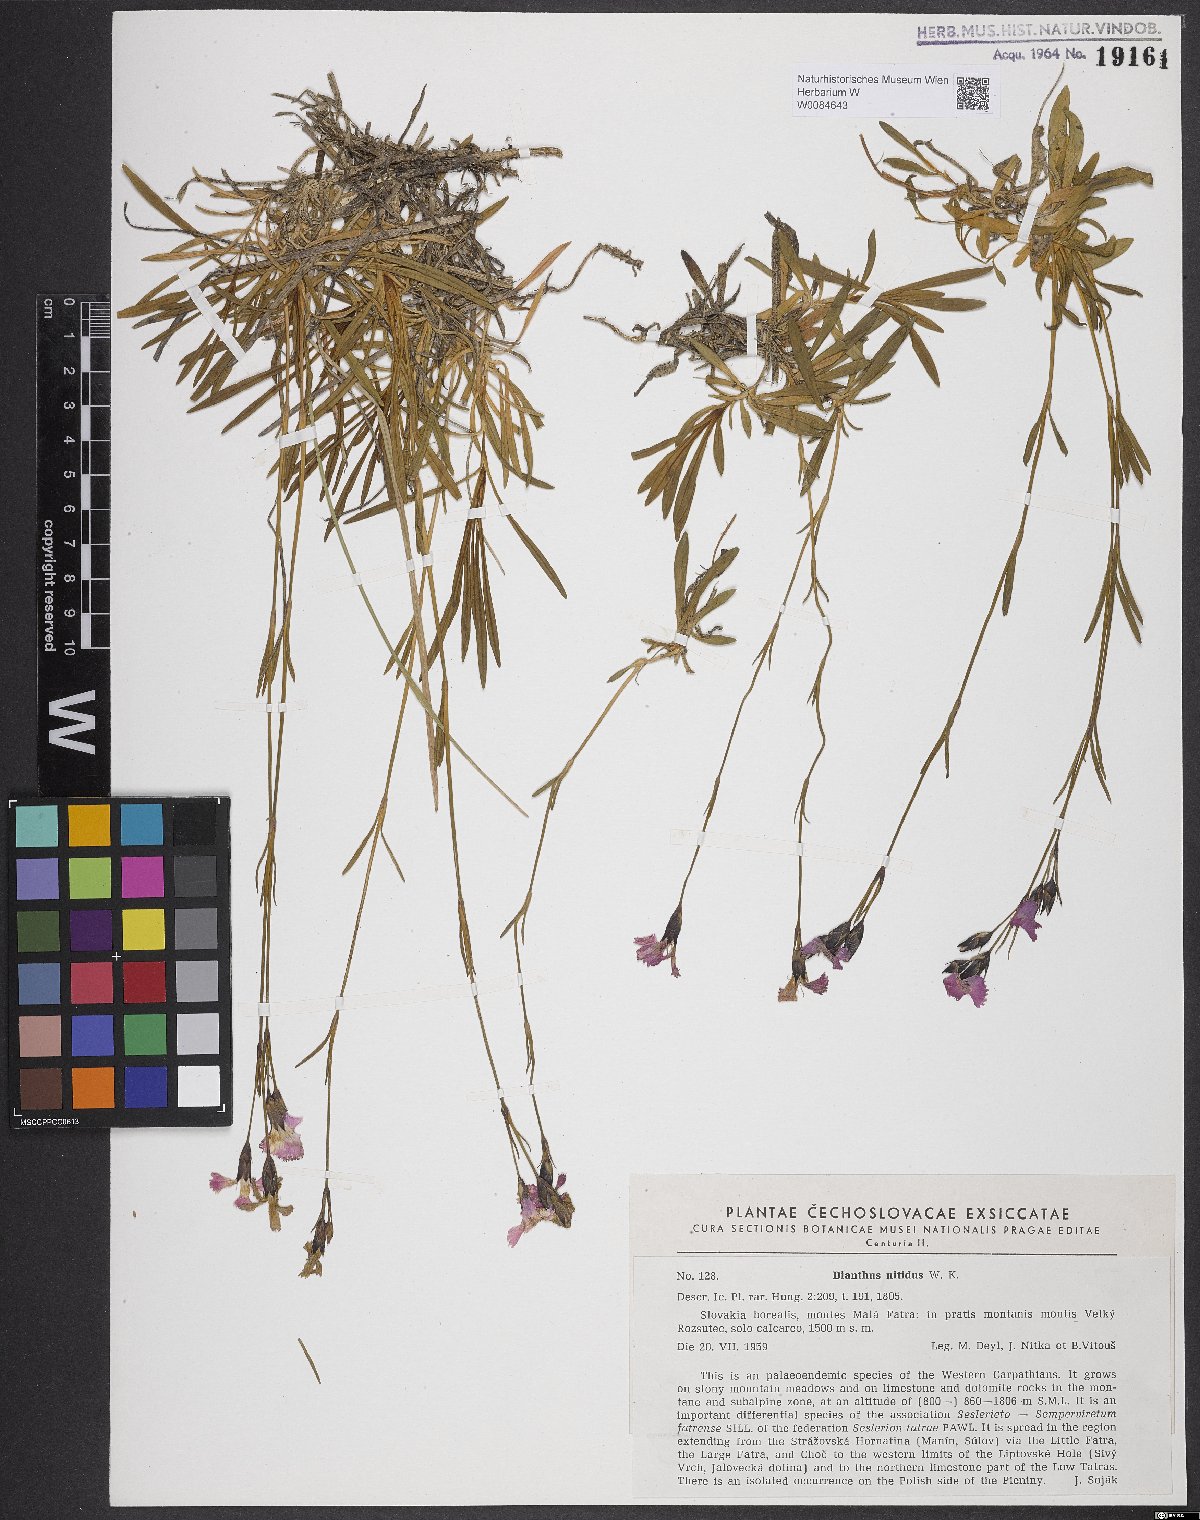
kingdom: Plantae
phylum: Tracheophyta
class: Magnoliopsida
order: Caryophyllales
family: Caryophyllaceae
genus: Dianthus
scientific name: Dianthus nitidus
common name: Carpathian glossy pink
